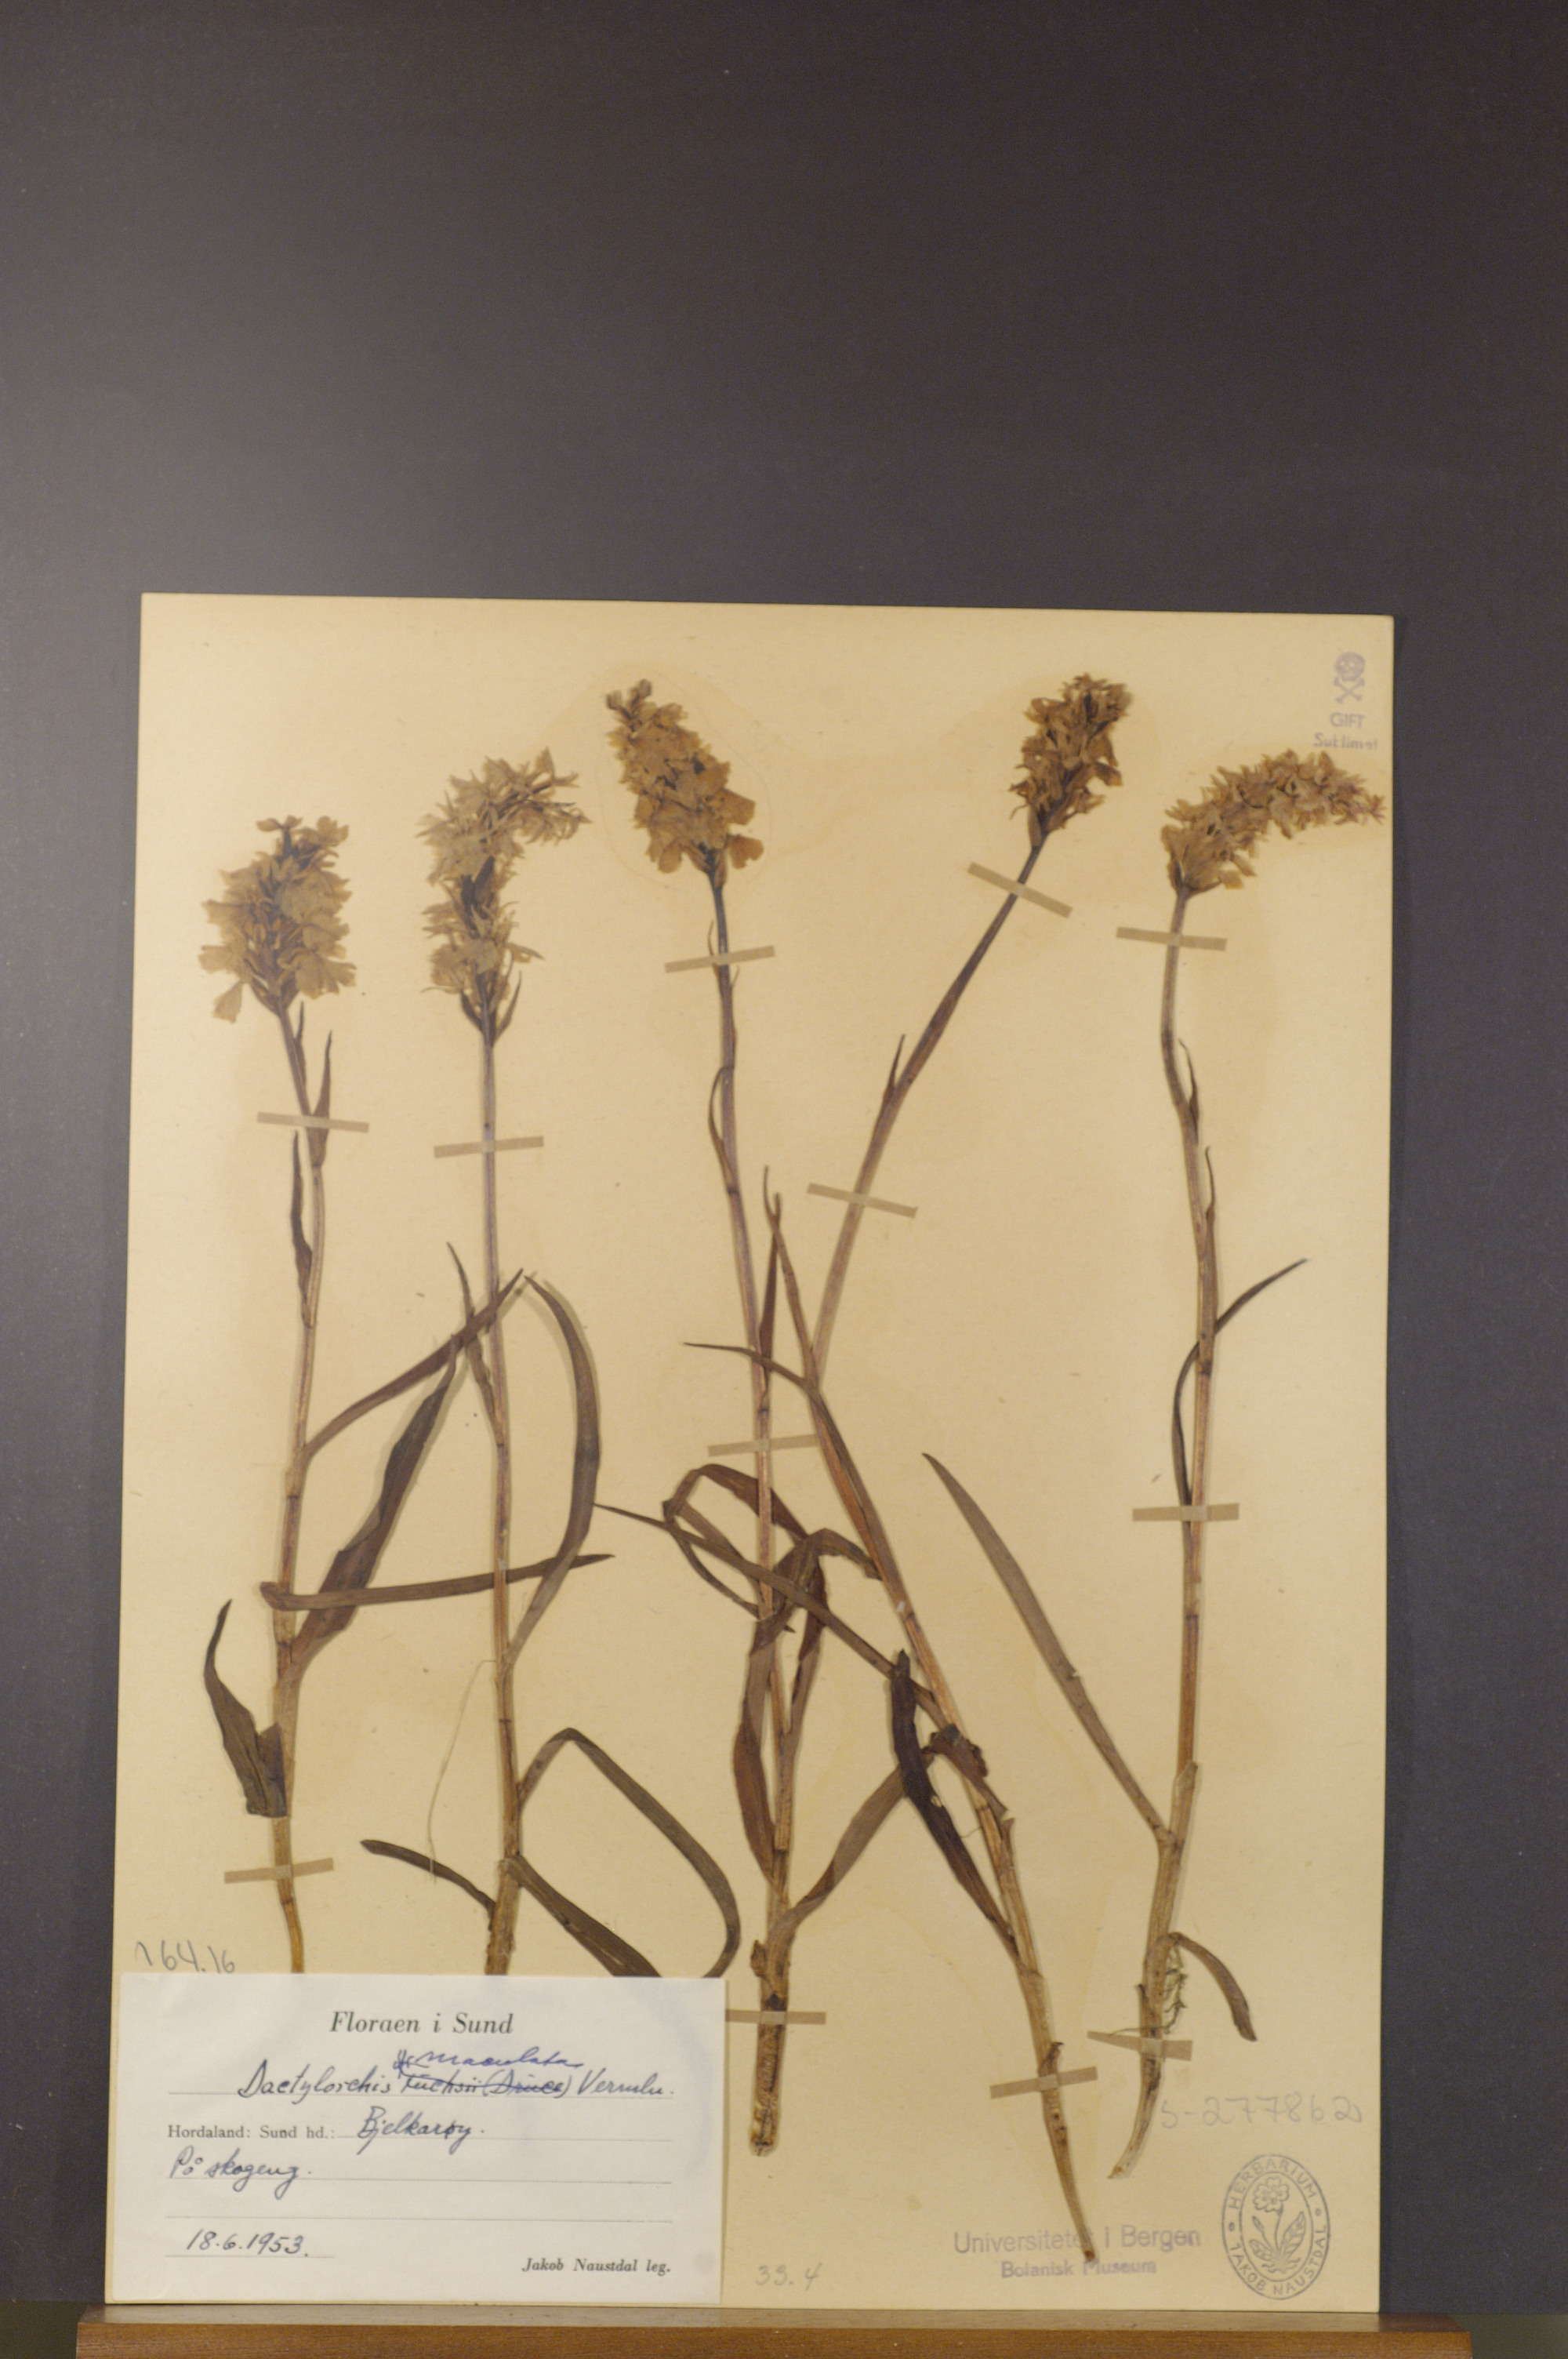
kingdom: Plantae
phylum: Tracheophyta
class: Liliopsida
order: Asparagales
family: Orchidaceae
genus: Dactylorhiza
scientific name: Dactylorhiza maculata
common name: Heath spotted-orchid
